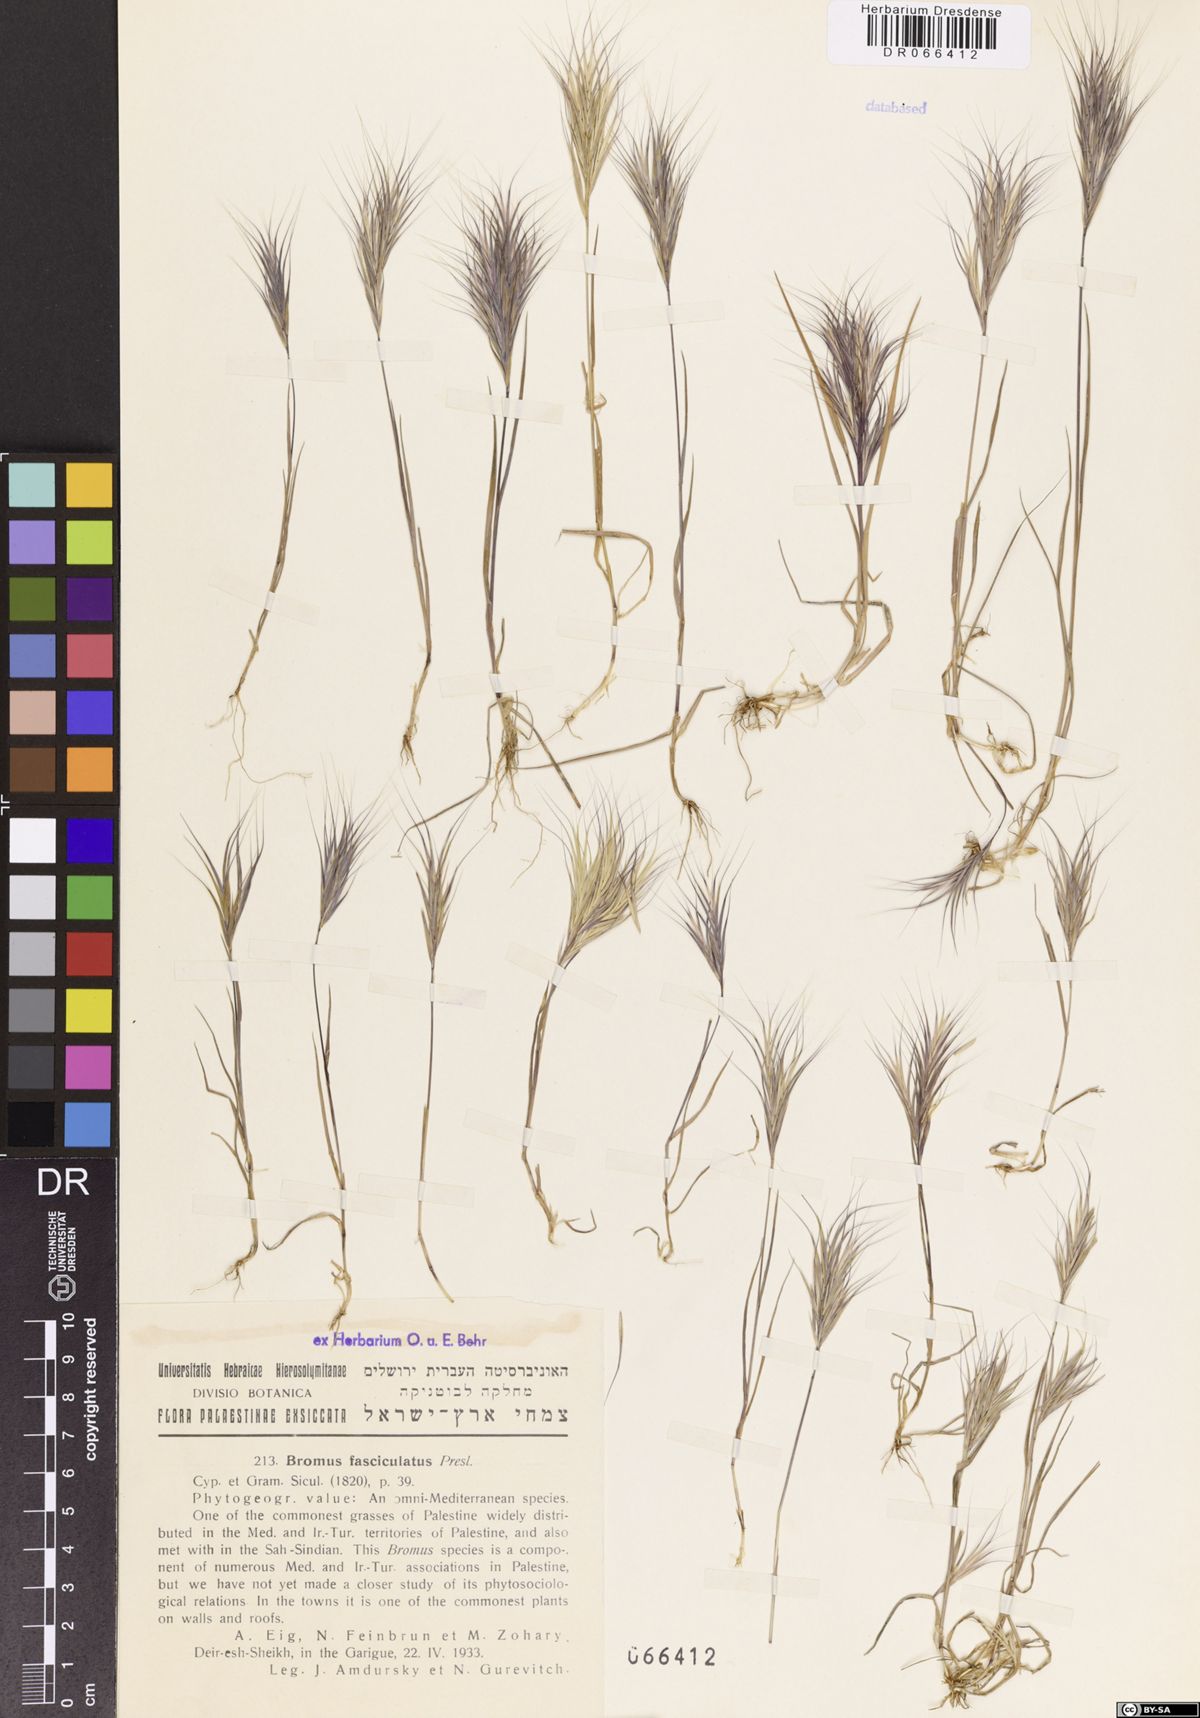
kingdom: Plantae
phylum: Tracheophyta
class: Liliopsida
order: Poales
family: Poaceae
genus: Bromus
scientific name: Bromus fasciculatus
